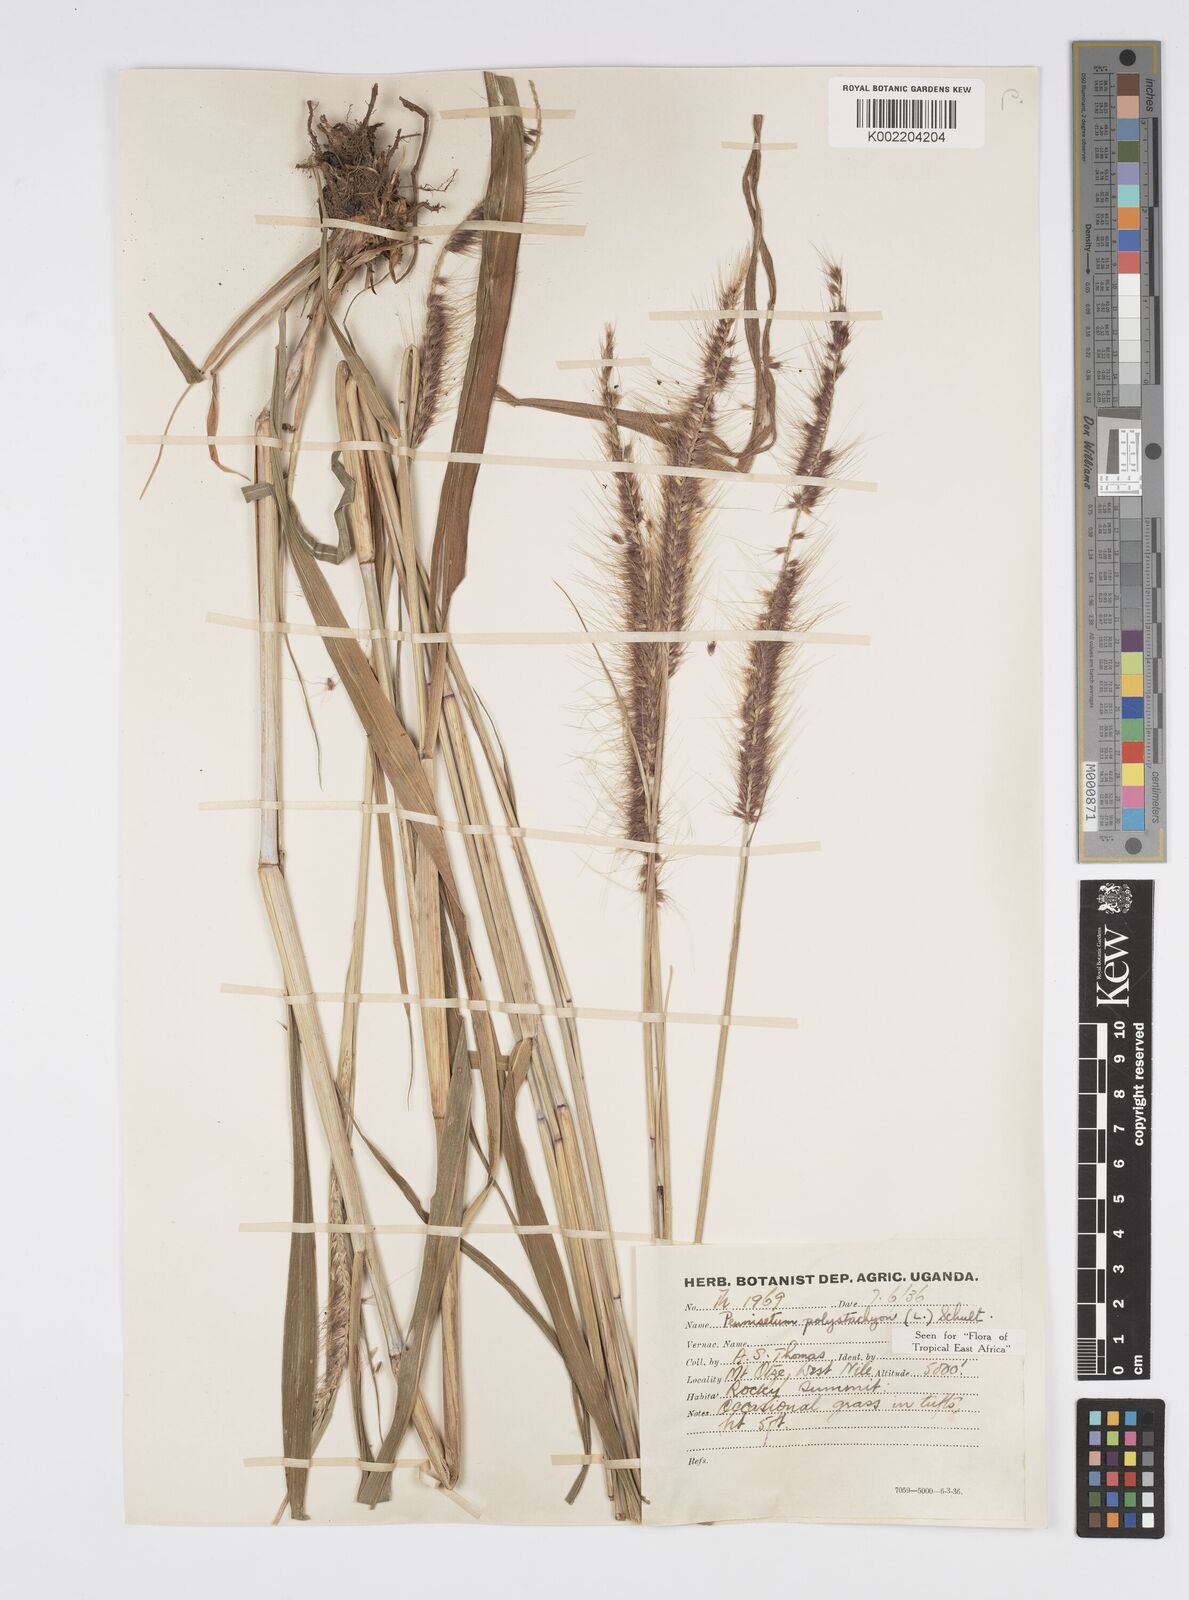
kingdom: Plantae
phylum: Tracheophyta
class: Liliopsida
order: Poales
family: Poaceae
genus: Setaria
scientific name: Setaria parviflora
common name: Knotroot bristle-grass
